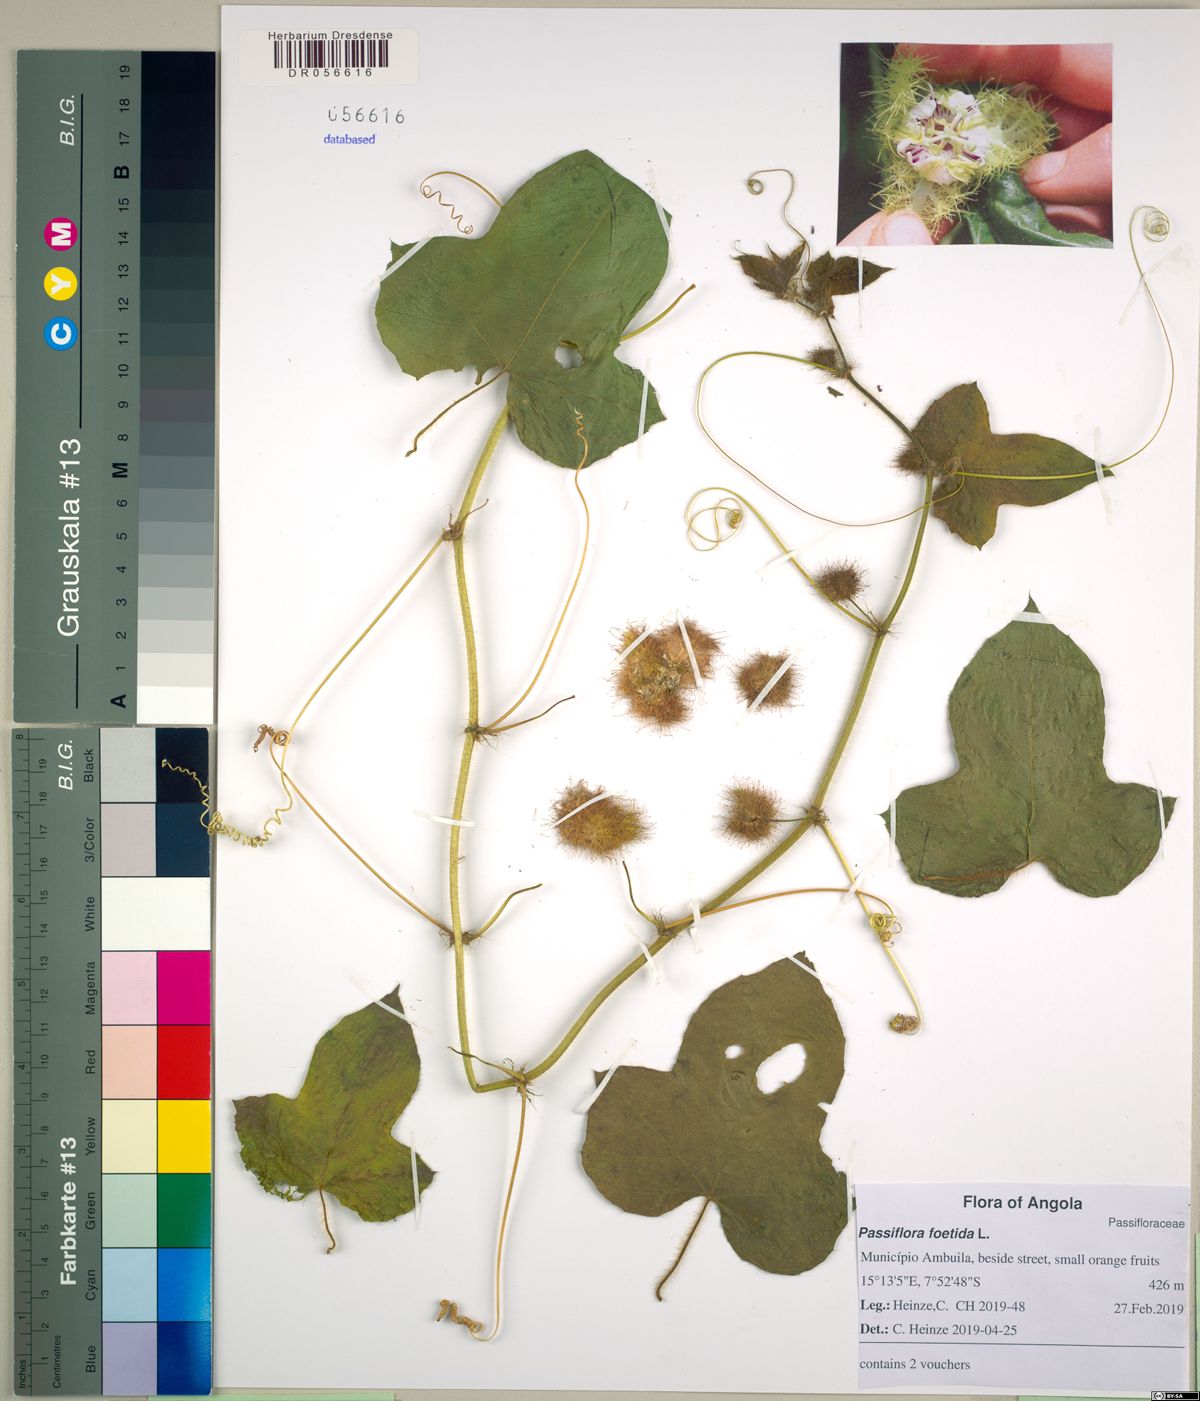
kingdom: Plantae
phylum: Tracheophyta
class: Magnoliopsida
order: Malpighiales
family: Passifloraceae
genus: Passiflora
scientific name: Passiflora foetida
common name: Fetid passionflower
